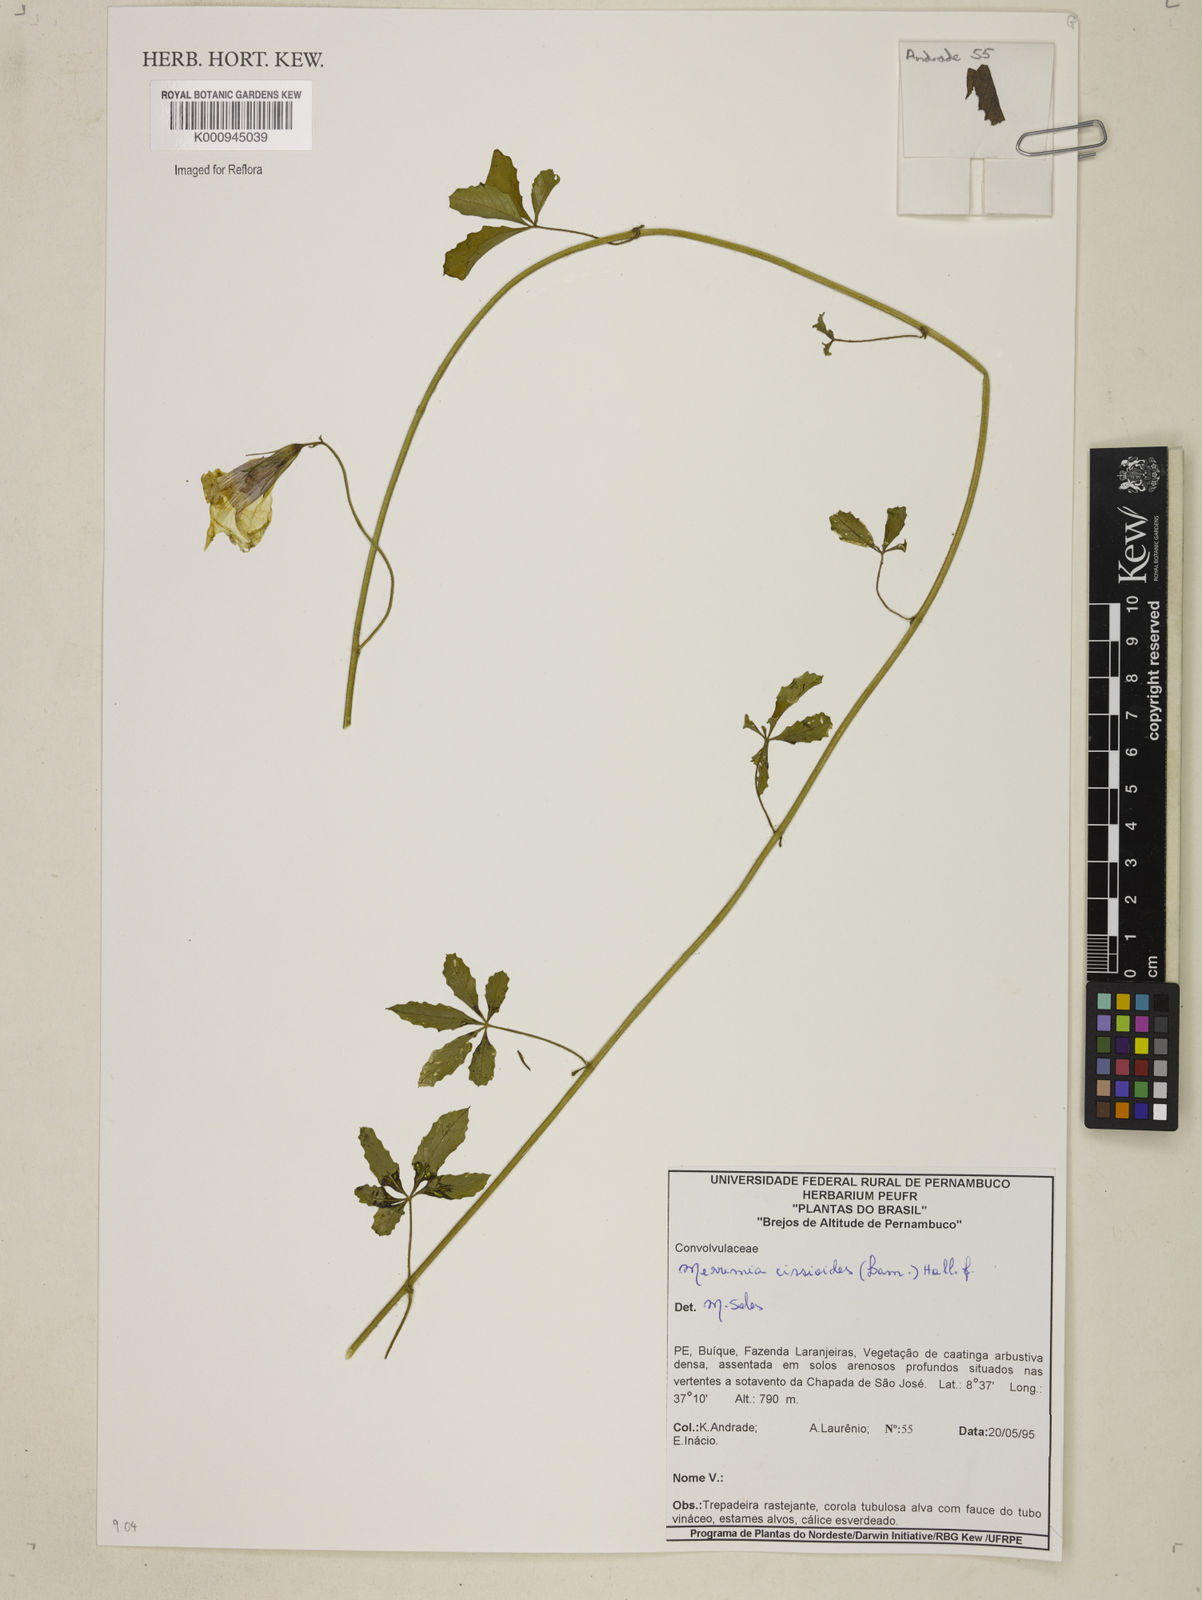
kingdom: Plantae
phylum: Tracheophyta
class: Magnoliopsida
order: Solanales
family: Convolvulaceae
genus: Distimake
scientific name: Distimake cissoides
